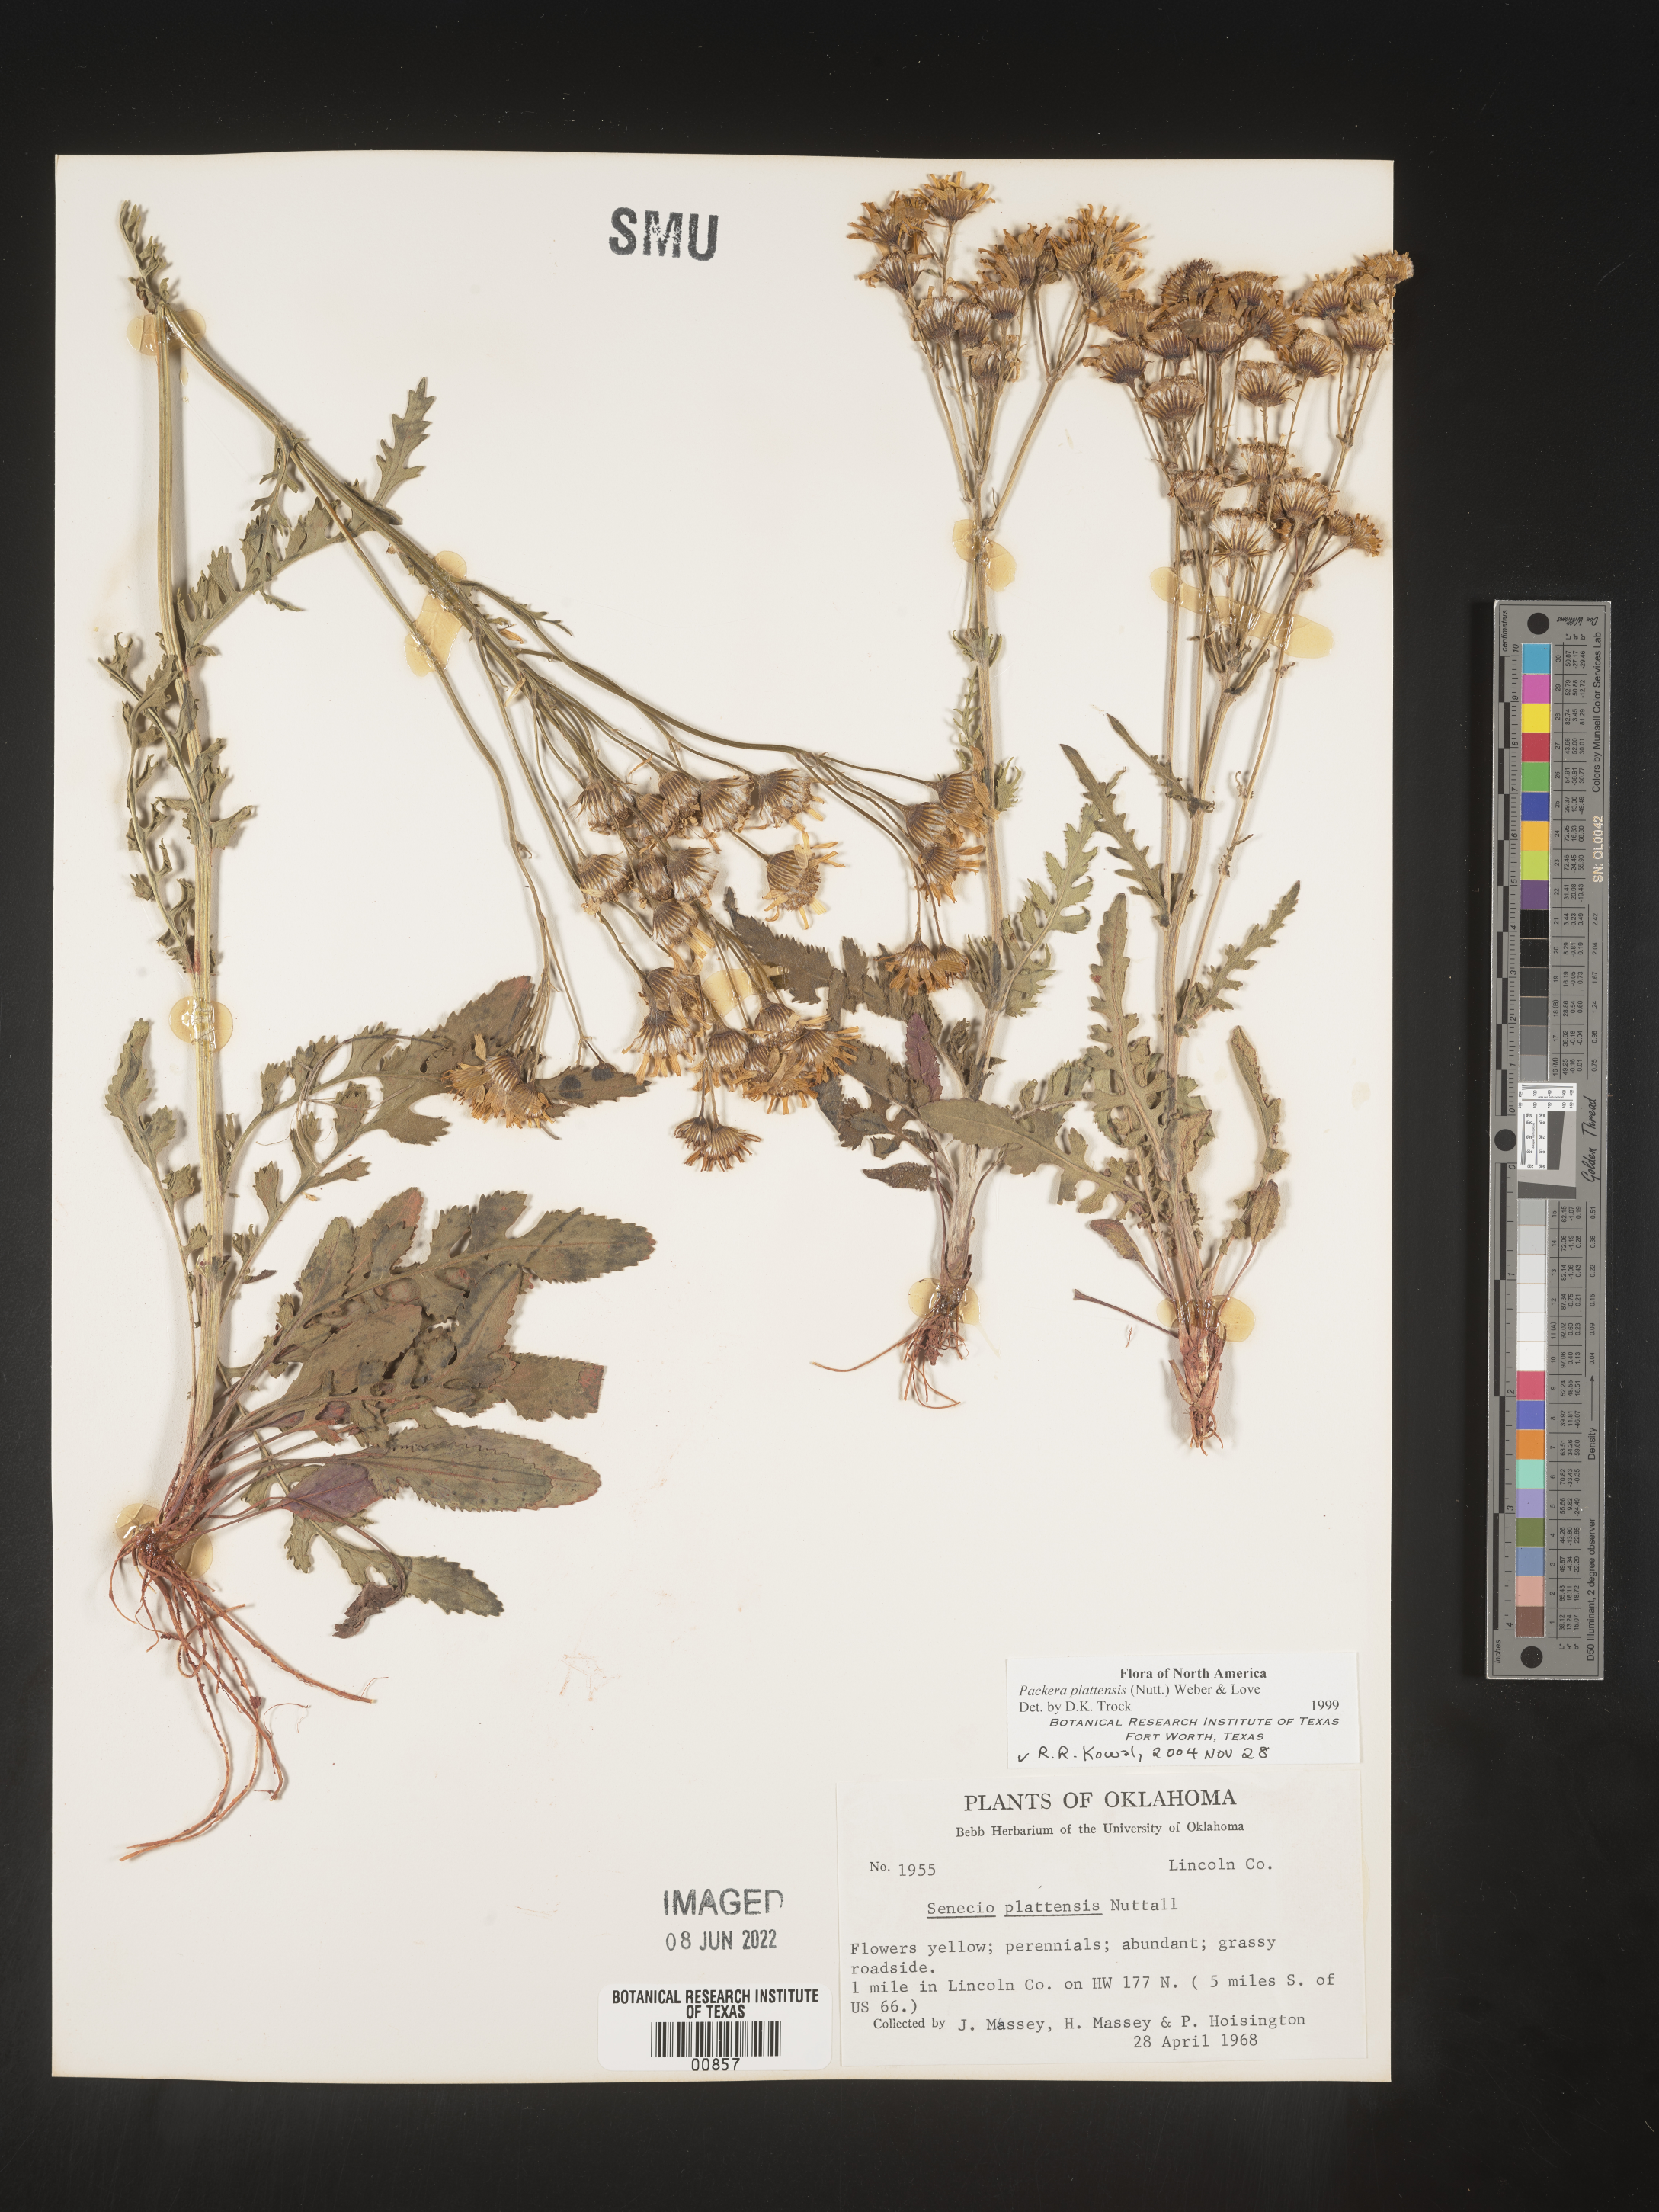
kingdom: Plantae
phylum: Tracheophyta
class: Magnoliopsida
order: Asterales
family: Asteraceae
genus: Packera
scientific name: Packera plattensis
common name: Prairie groundsel
